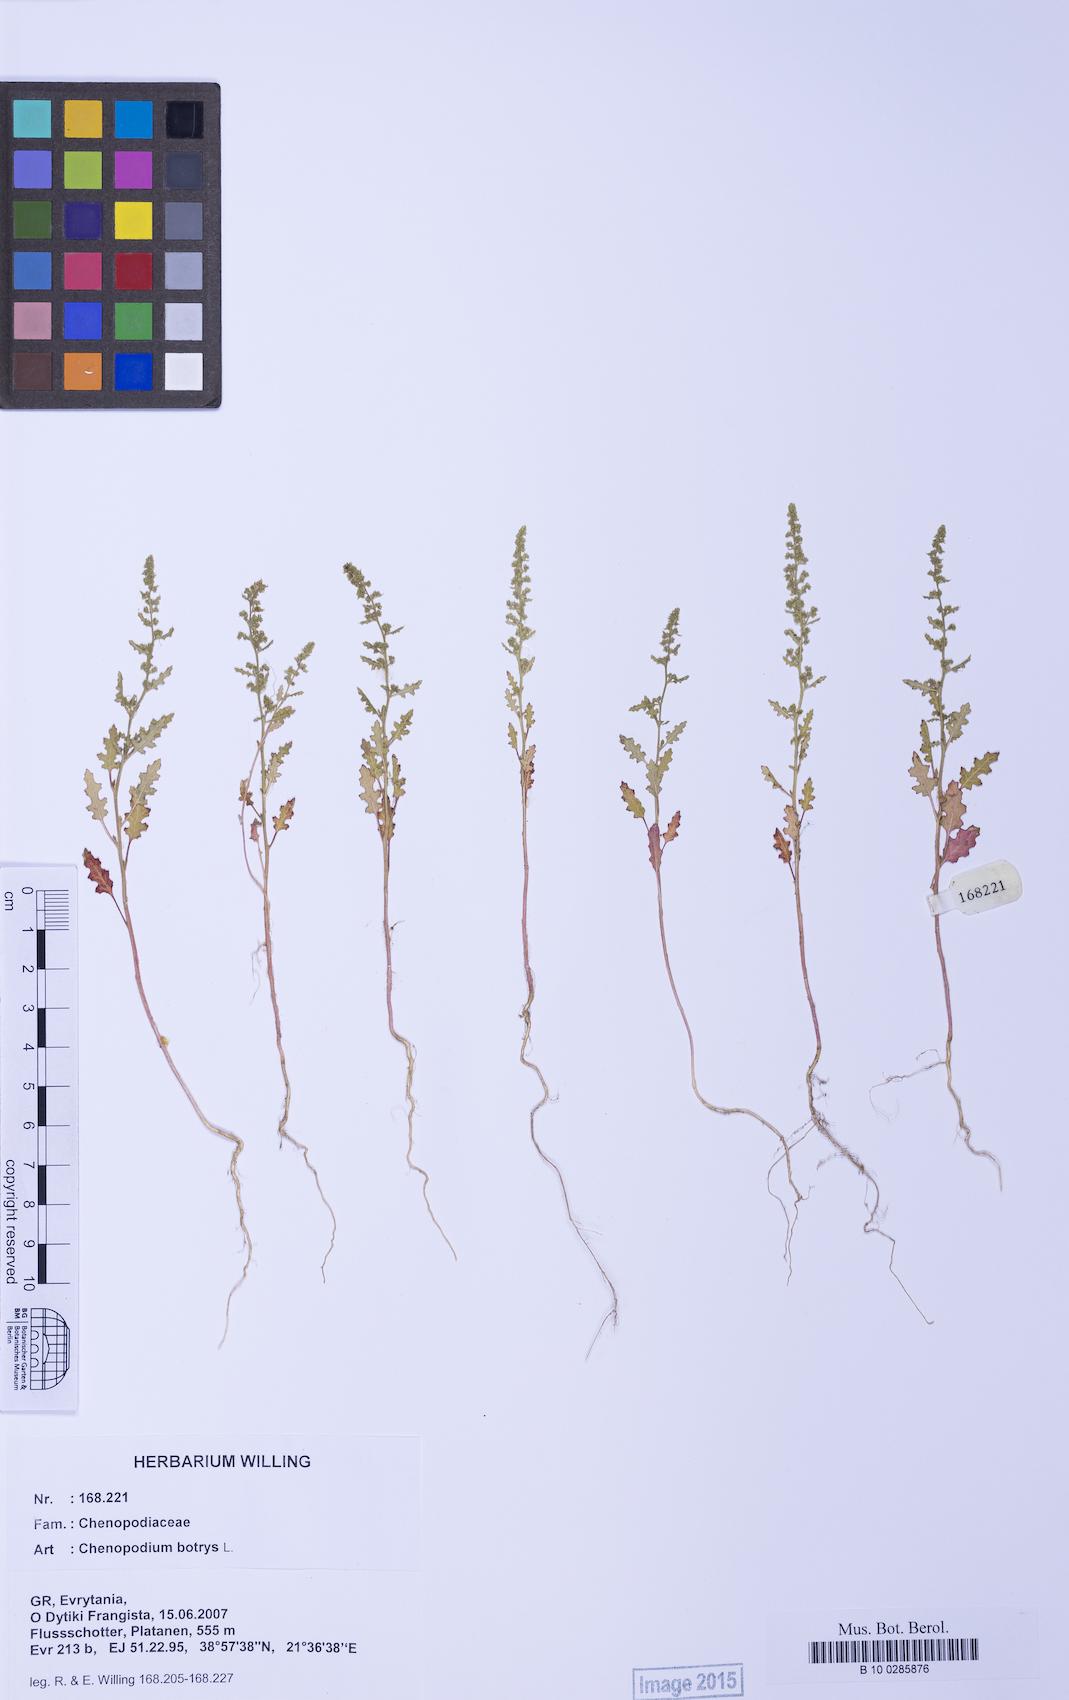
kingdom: Plantae
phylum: Tracheophyta
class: Magnoliopsida
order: Caryophyllales
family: Amaranthaceae
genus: Dysphania
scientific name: Dysphania botrys
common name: Feather-geranium
